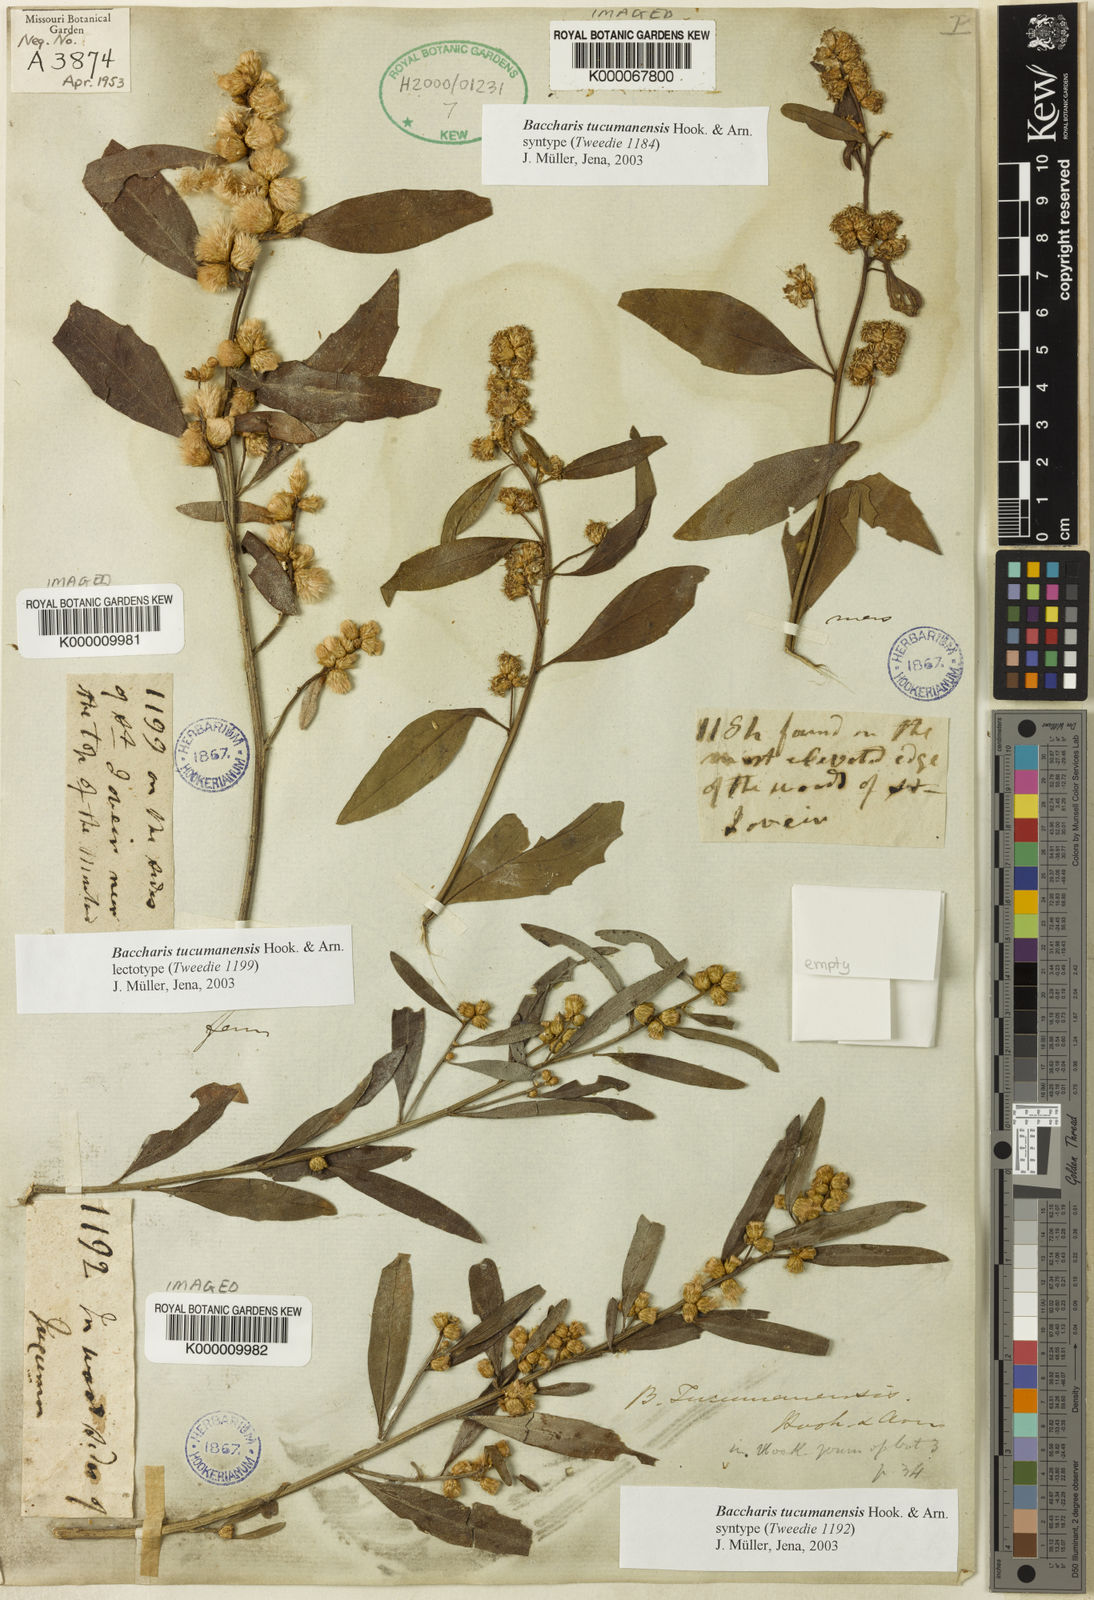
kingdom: Plantae
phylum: Tracheophyta
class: Magnoliopsida
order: Asterales
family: Asteraceae
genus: Baccharis
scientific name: Baccharis tucumanensis
